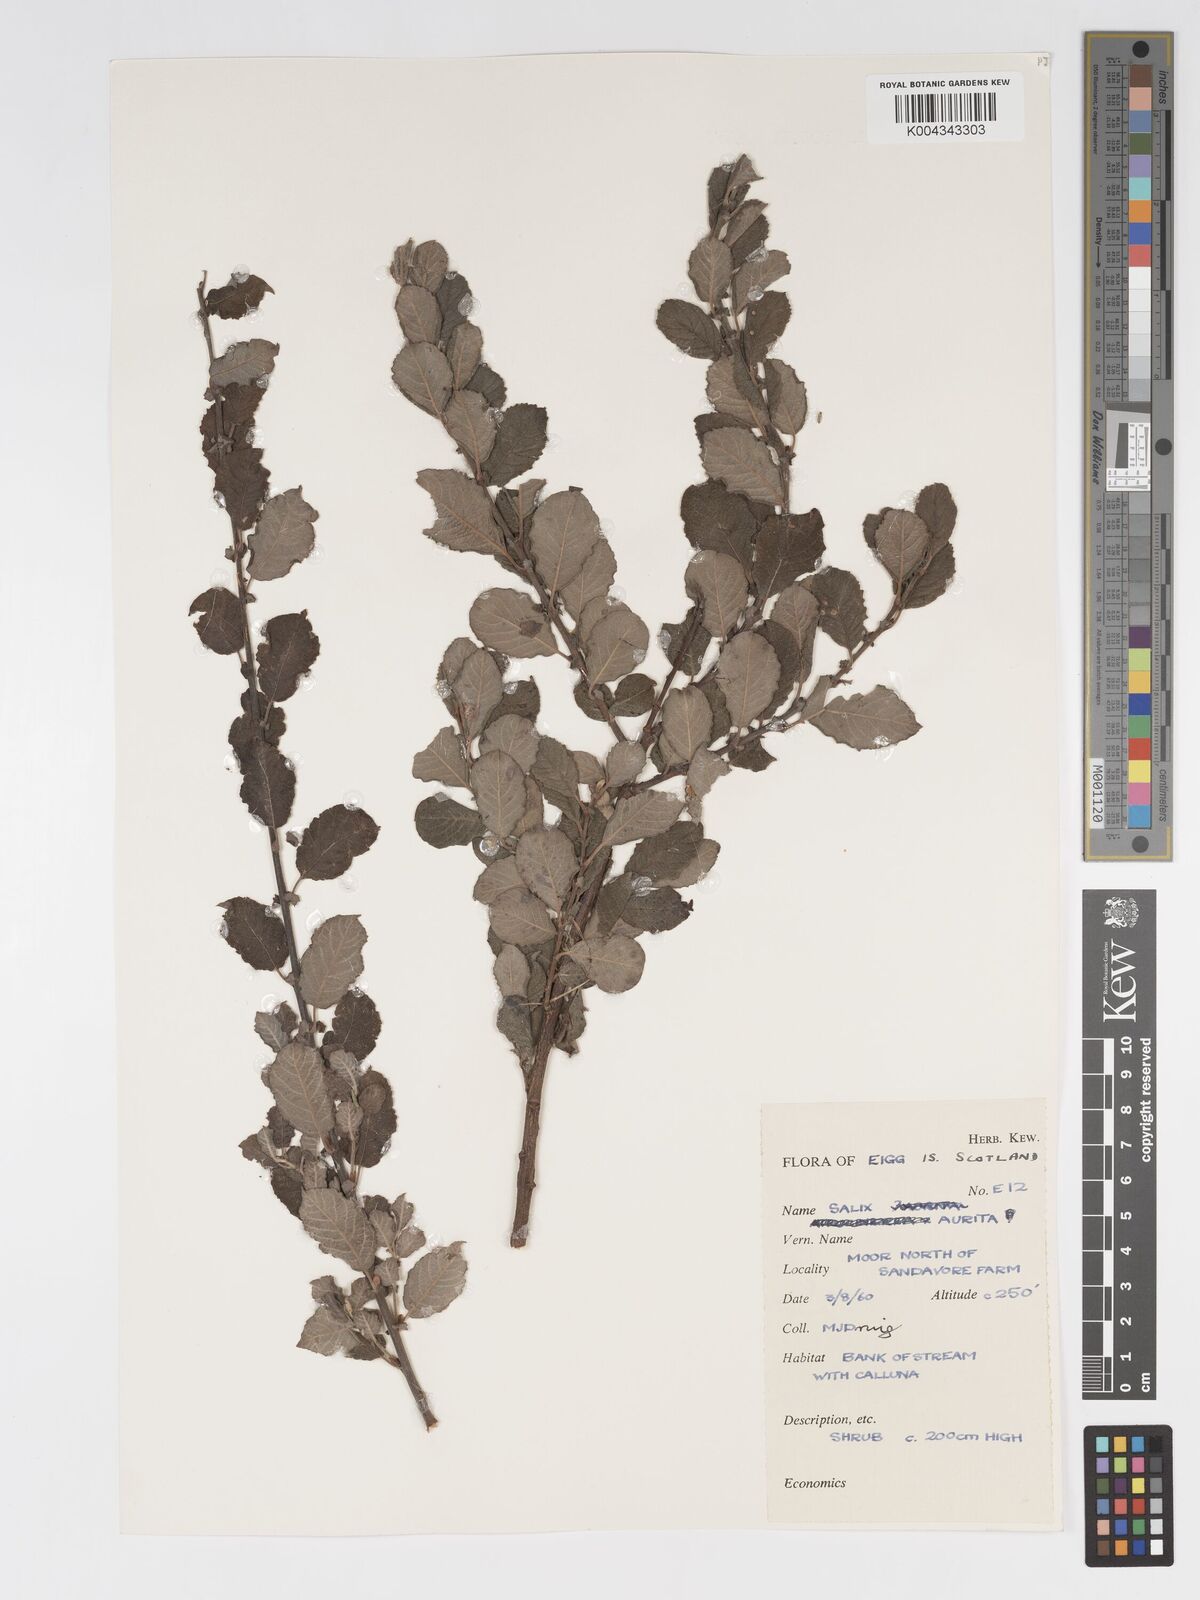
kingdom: Plantae
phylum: Tracheophyta
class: Magnoliopsida
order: Malpighiales
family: Salicaceae
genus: Salix
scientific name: Salix aurita
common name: Eared willow
